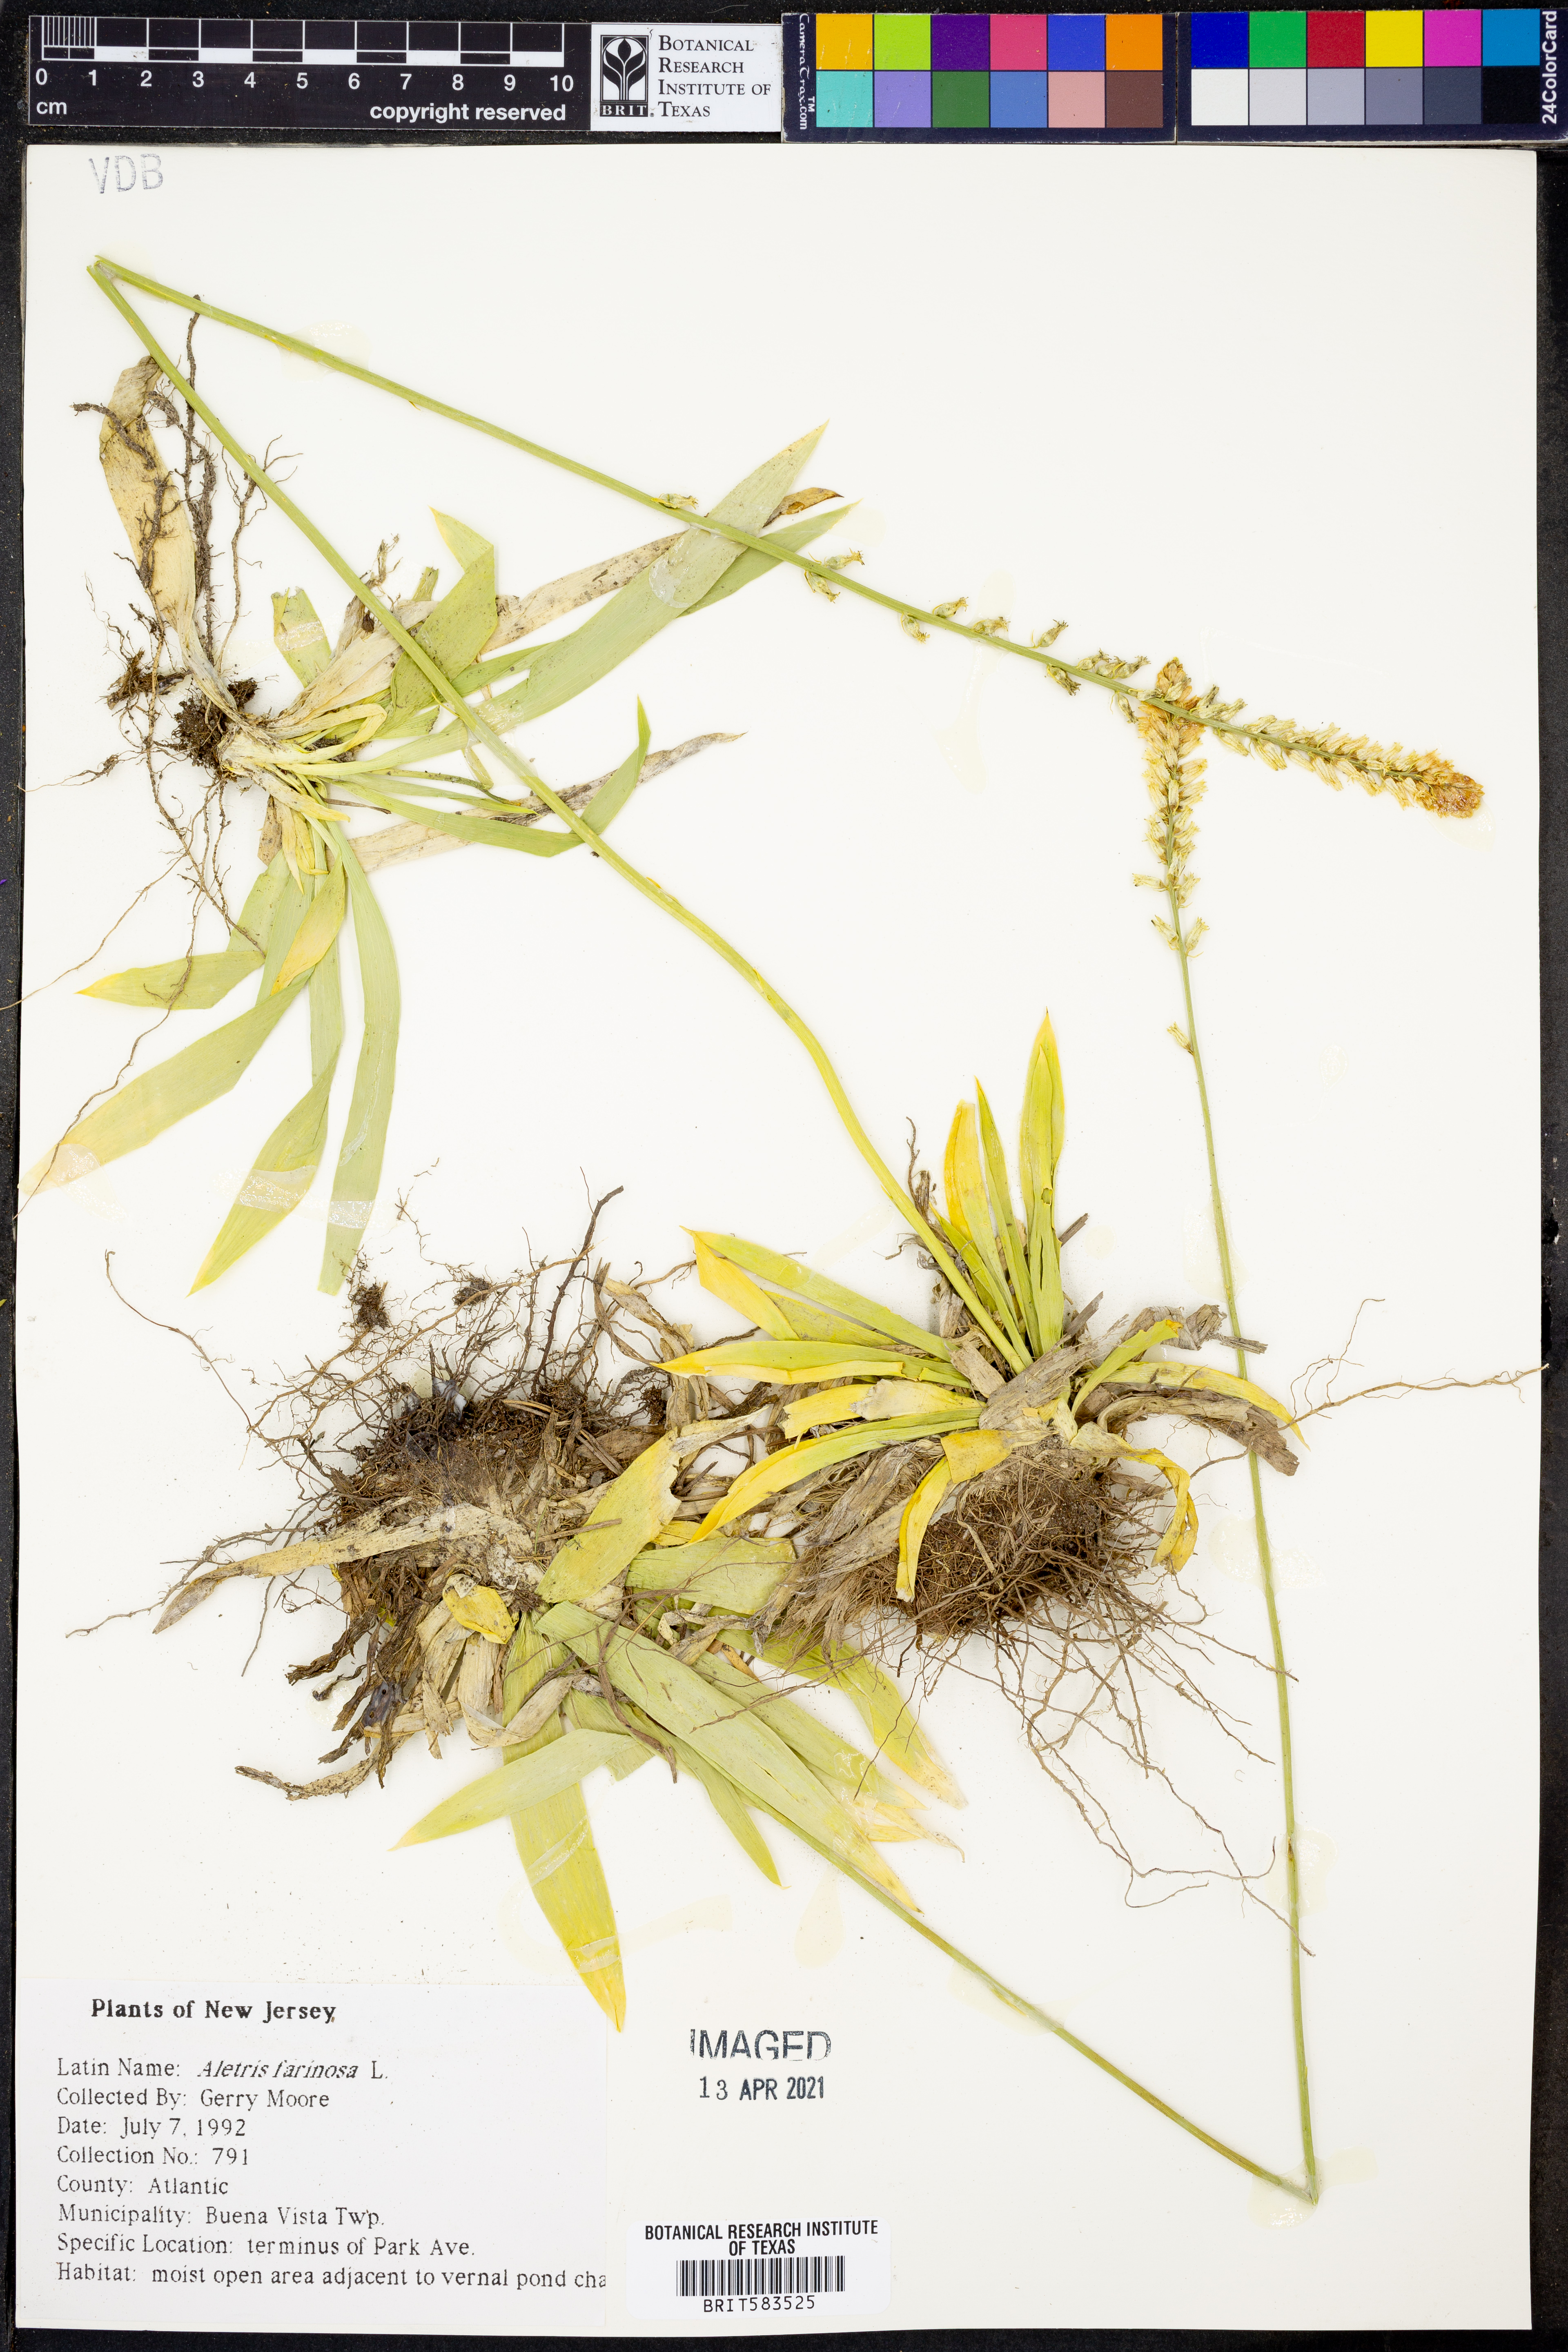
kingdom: Plantae
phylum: Tracheophyta
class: Liliopsida
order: Dioscoreales
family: Nartheciaceae
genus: Aletris
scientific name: Aletris farinosa
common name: Colicroot
